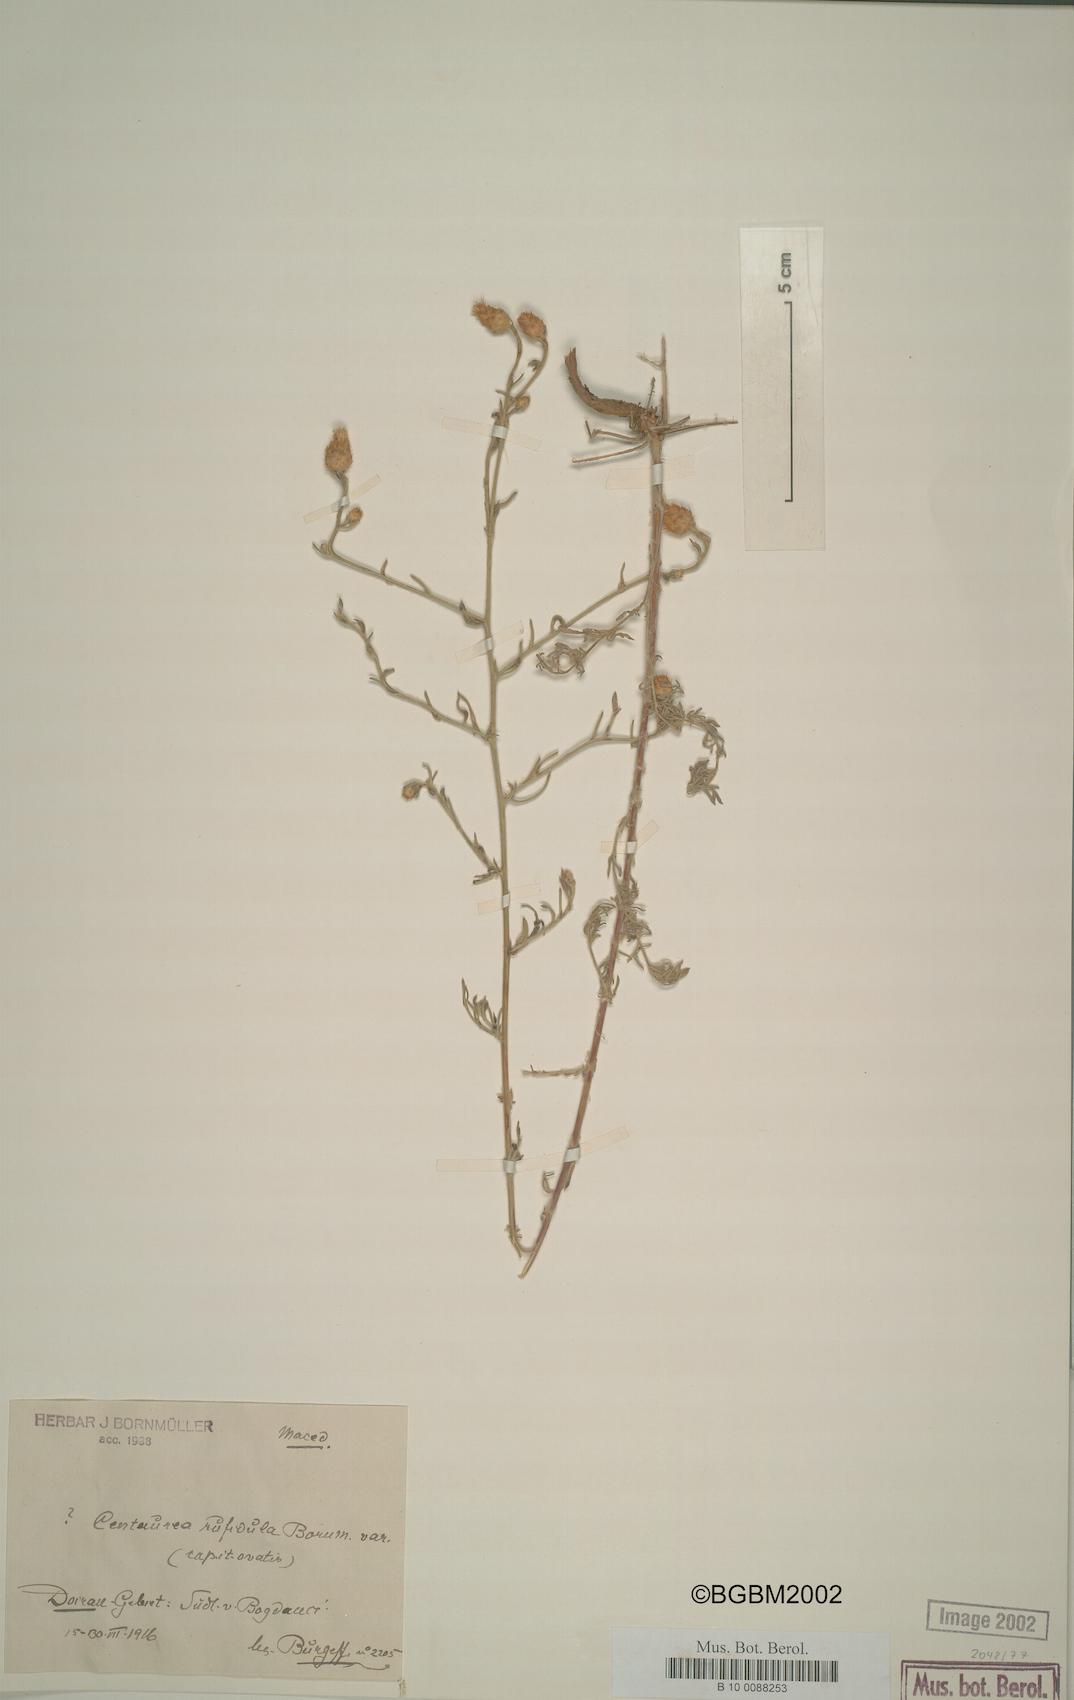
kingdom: Plantae
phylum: Tracheophyta
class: Magnoliopsida
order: Asterales
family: Asteraceae
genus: Centaurea
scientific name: Centaurea rufidula
